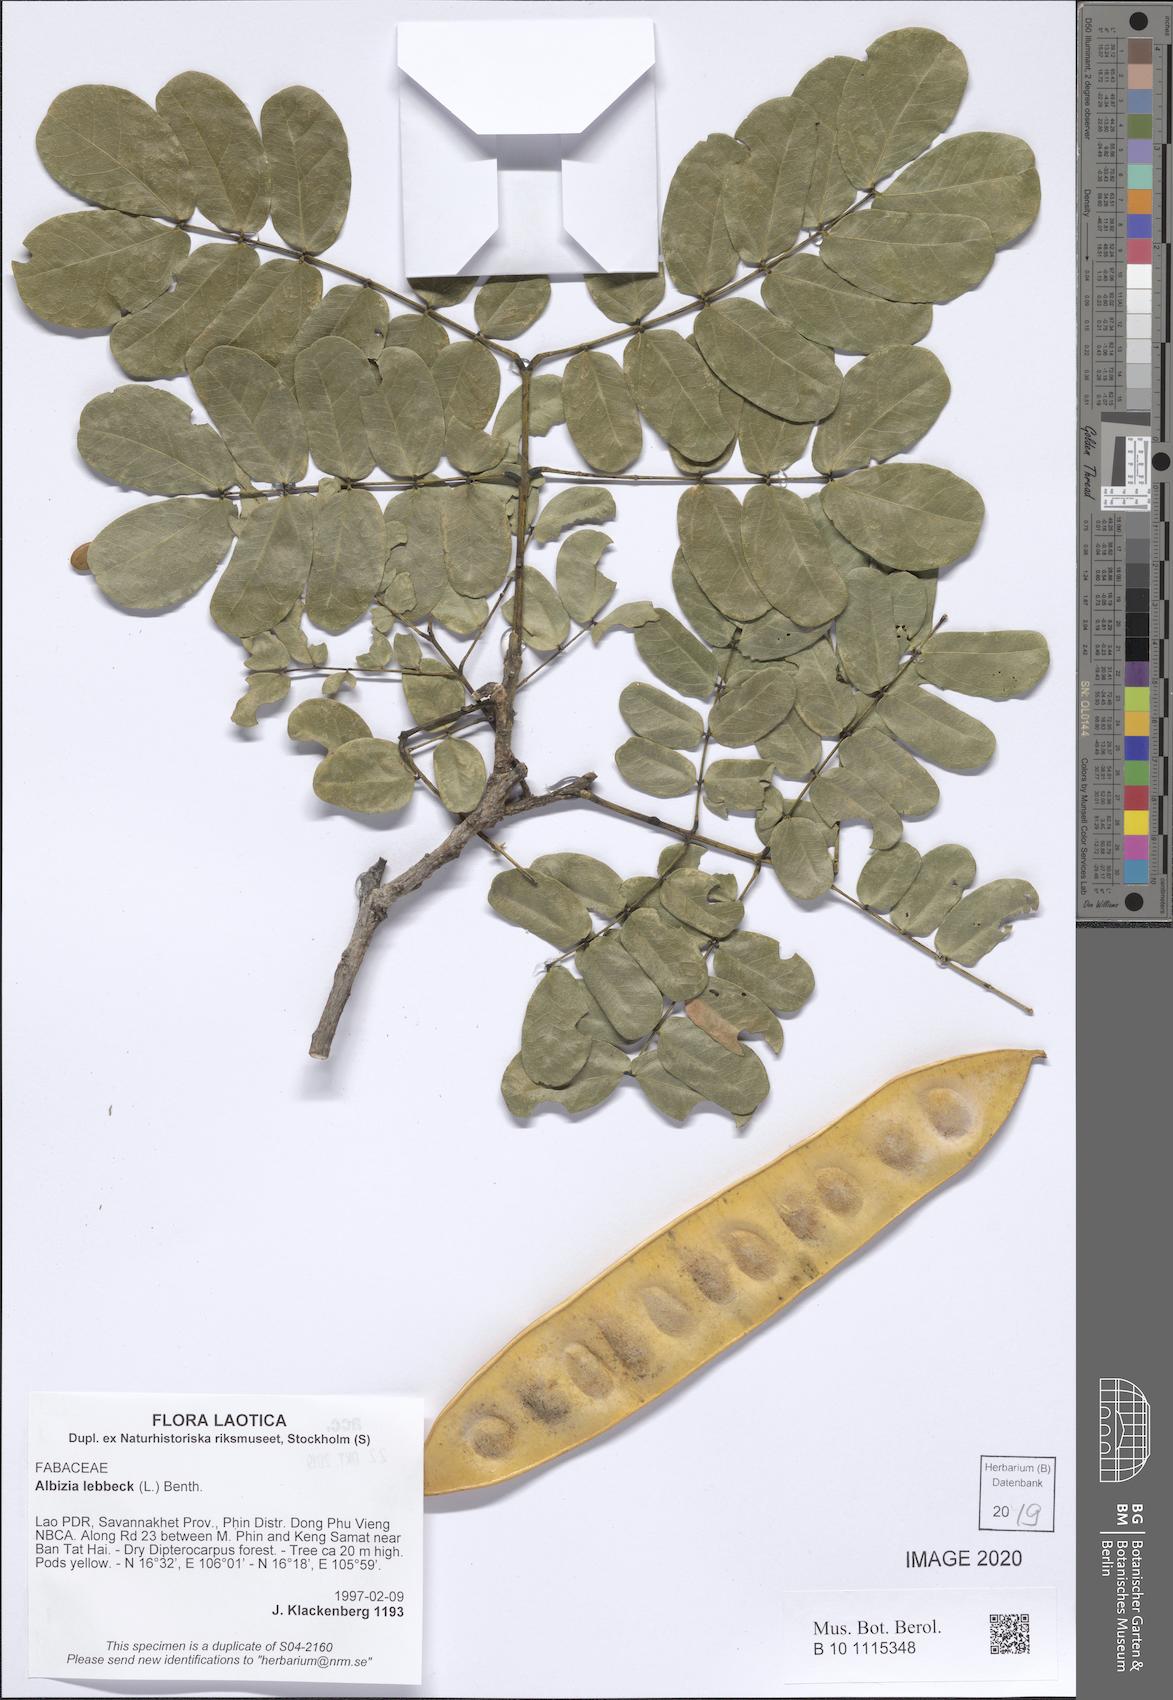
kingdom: Plantae
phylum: Tracheophyta
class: Magnoliopsida
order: Fabales
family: Fabaceae
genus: Albizia
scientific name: Albizia lebbeck
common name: Woman's tongue
